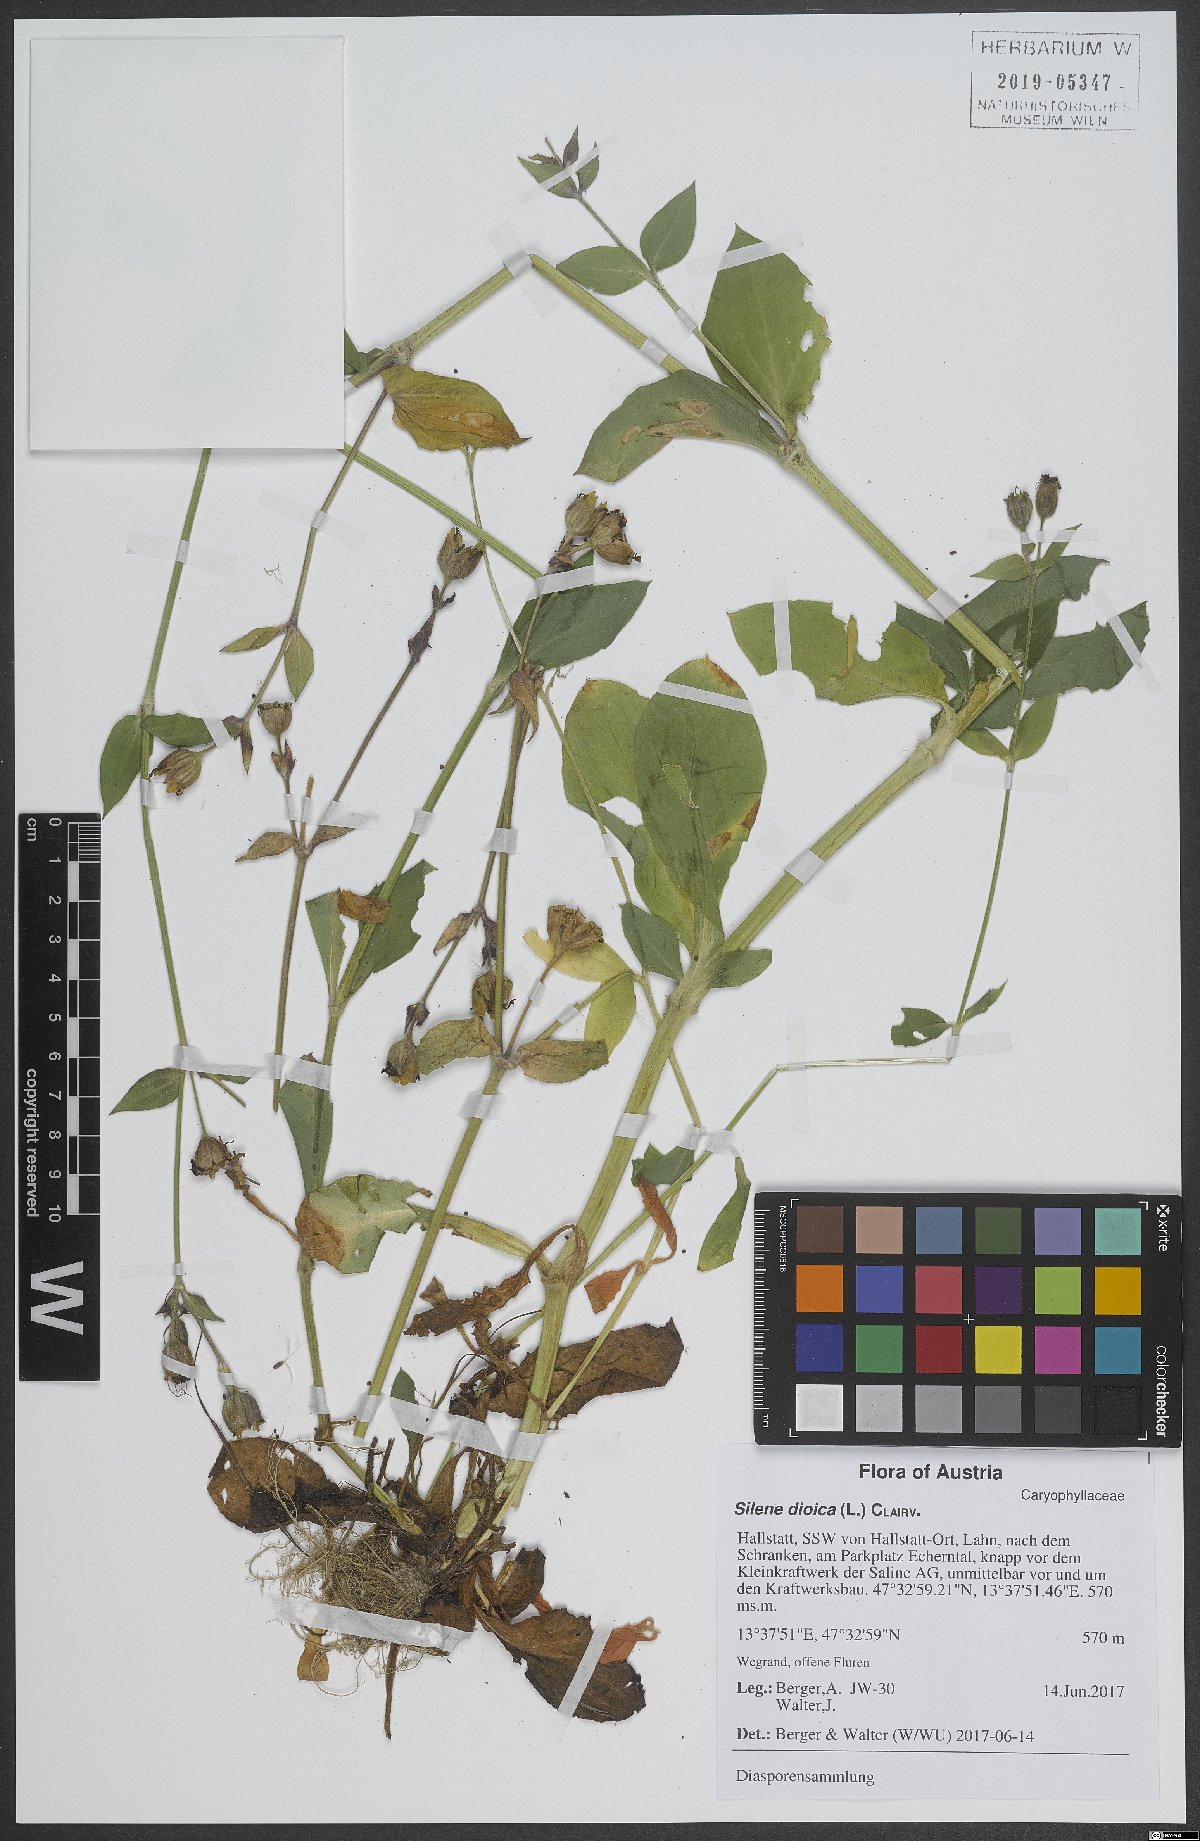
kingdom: Plantae
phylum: Tracheophyta
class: Magnoliopsida
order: Caryophyllales
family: Caryophyllaceae
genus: Silene
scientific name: Silene dioica
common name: Red campion
